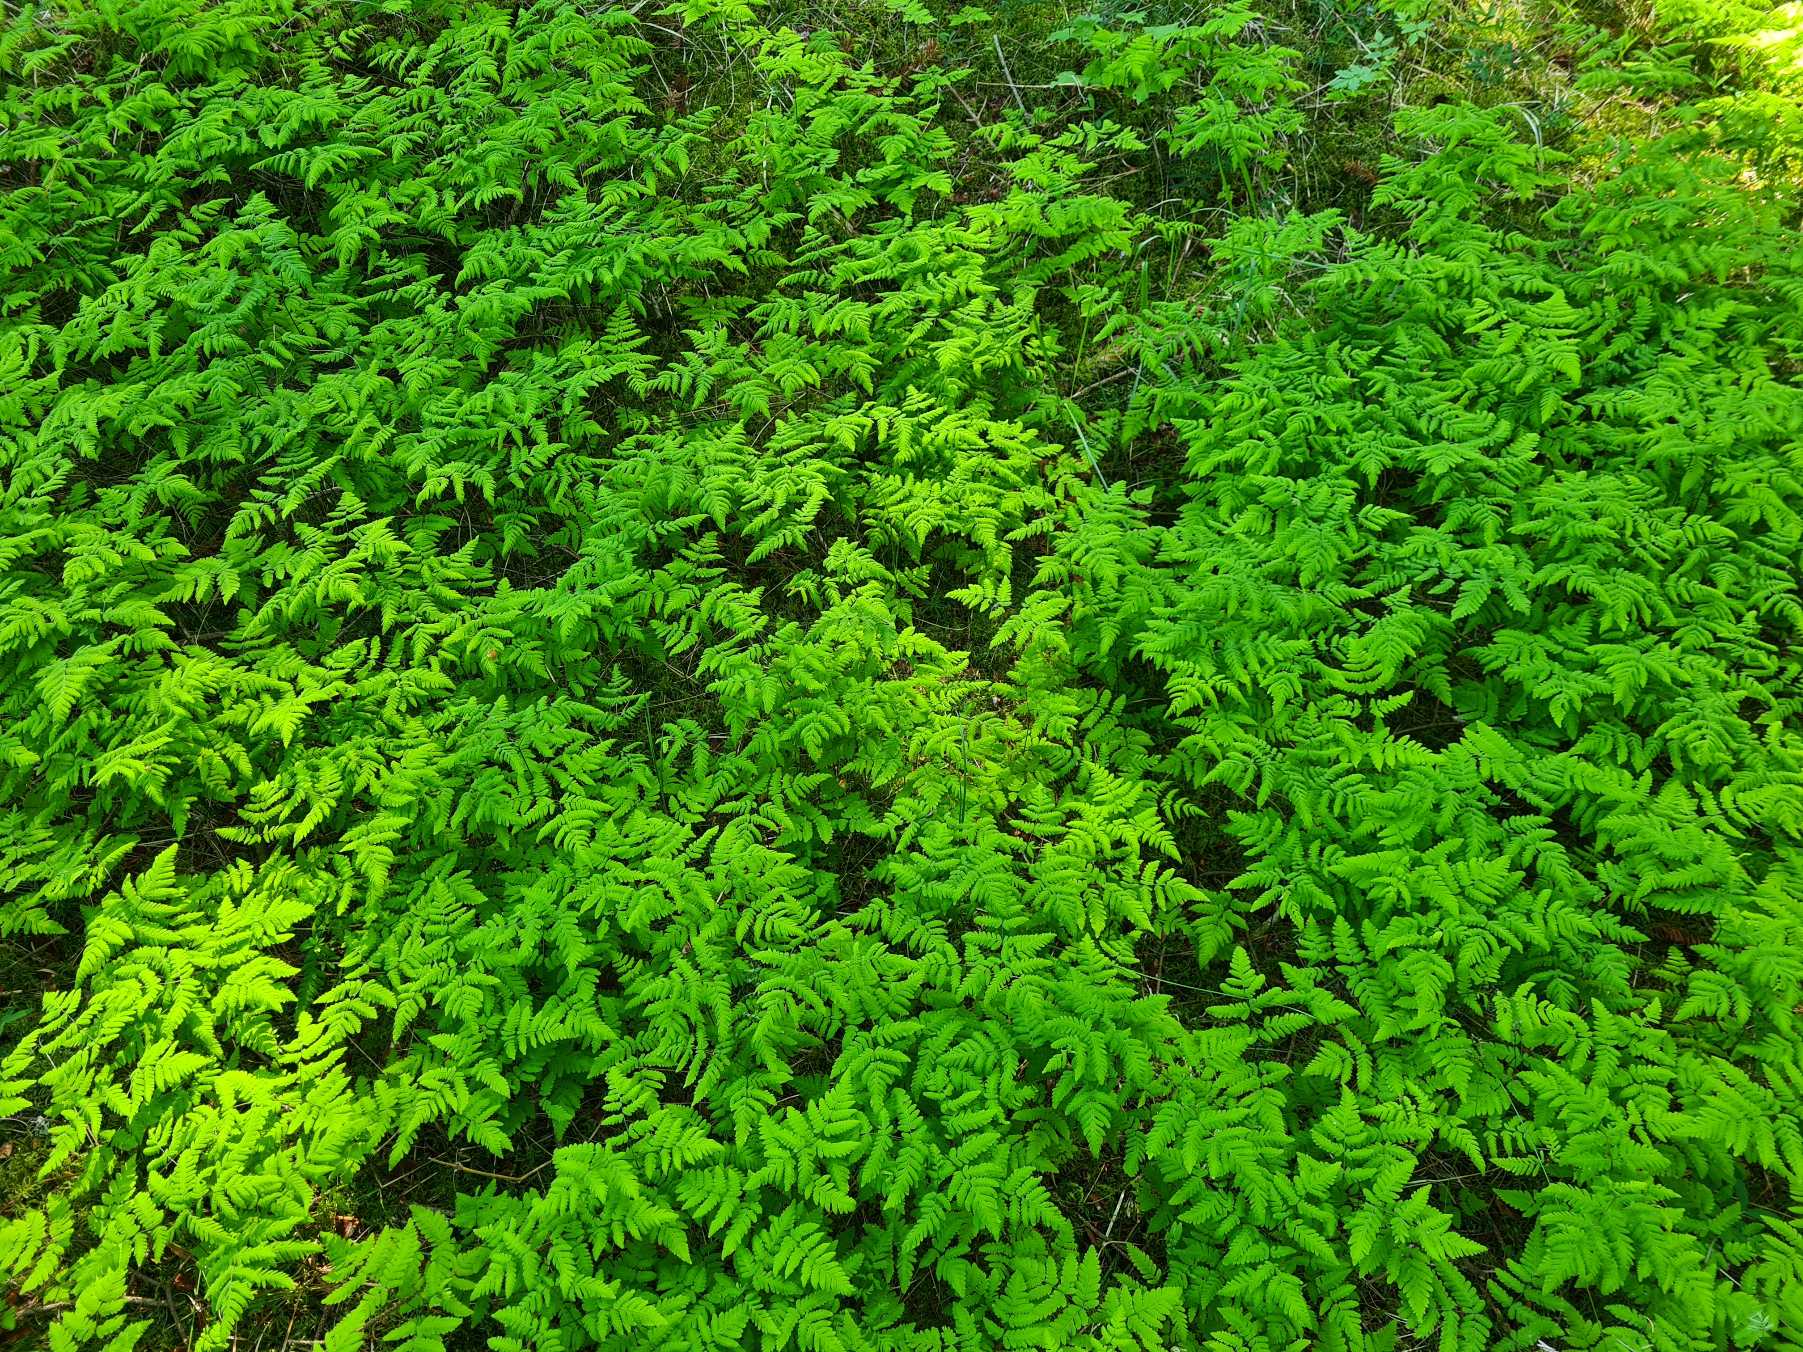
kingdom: Plantae
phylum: Tracheophyta
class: Polypodiopsida
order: Polypodiales
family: Cystopteridaceae
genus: Gymnocarpium
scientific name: Gymnocarpium dryopteris
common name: Tredelt egebregne
